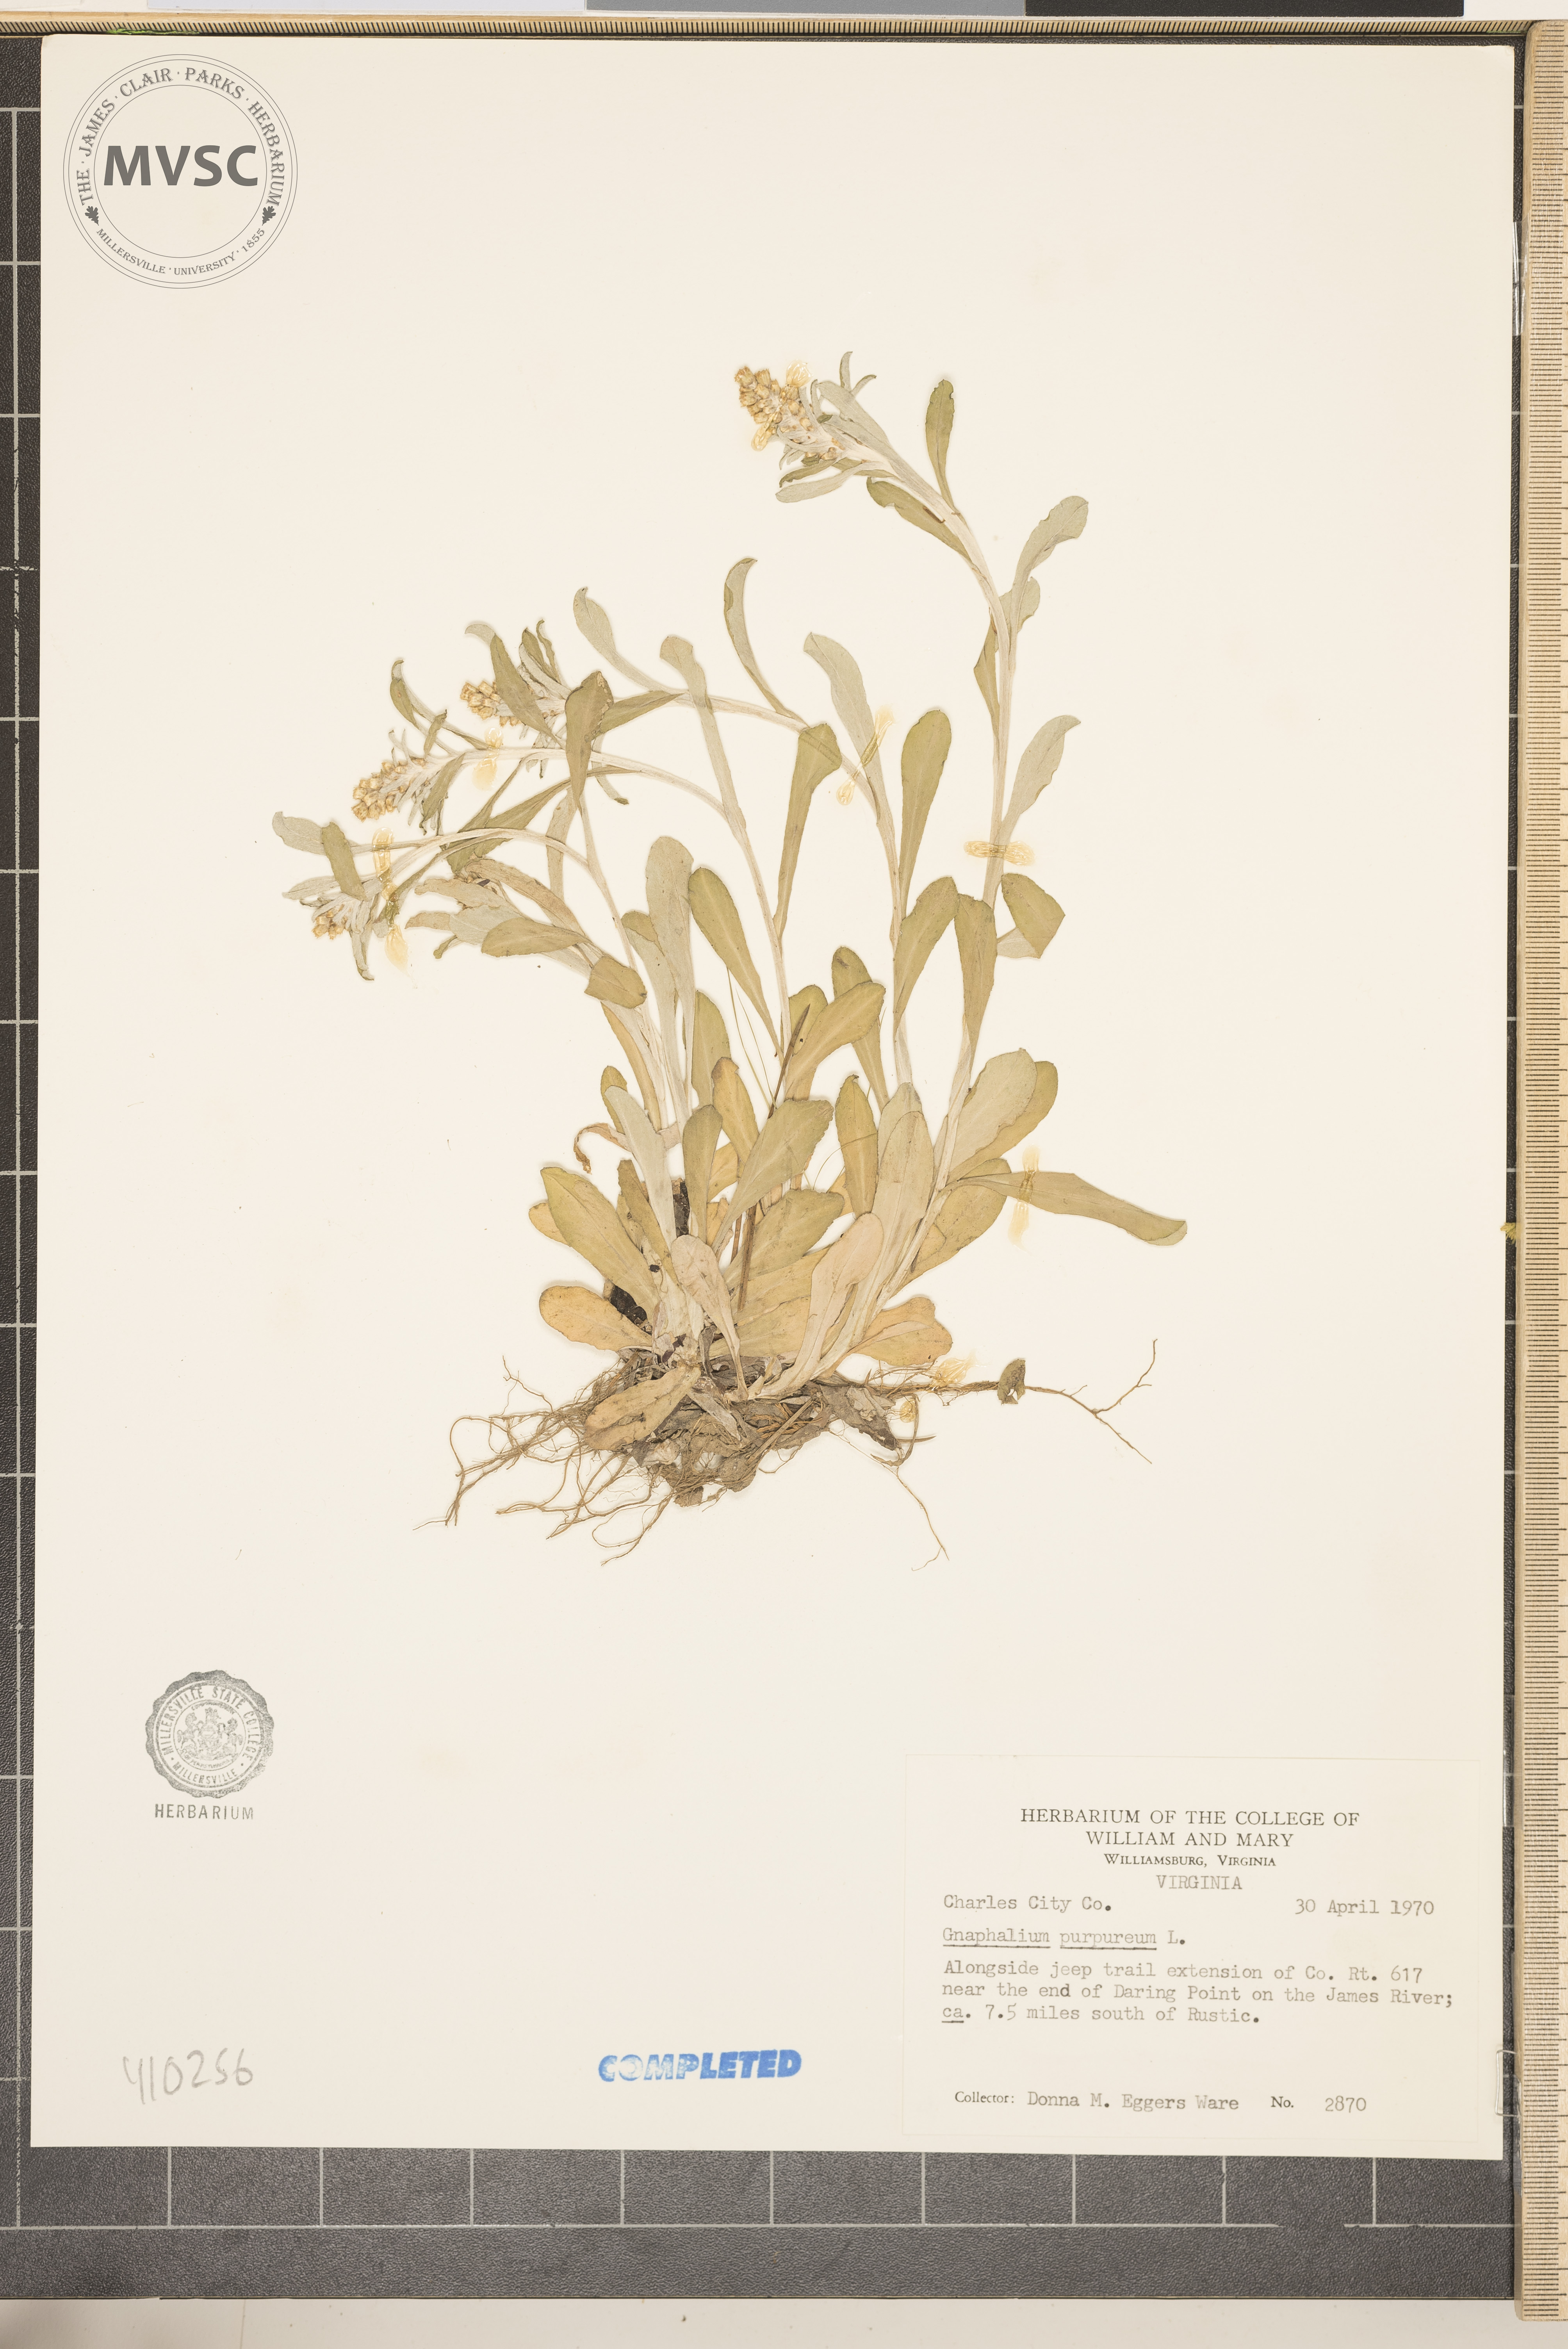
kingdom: Plantae
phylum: Tracheophyta
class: Magnoliopsida
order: Asterales
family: Asteraceae
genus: Gamochaeta
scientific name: Gamochaeta purpurea
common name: Purple cudweed
